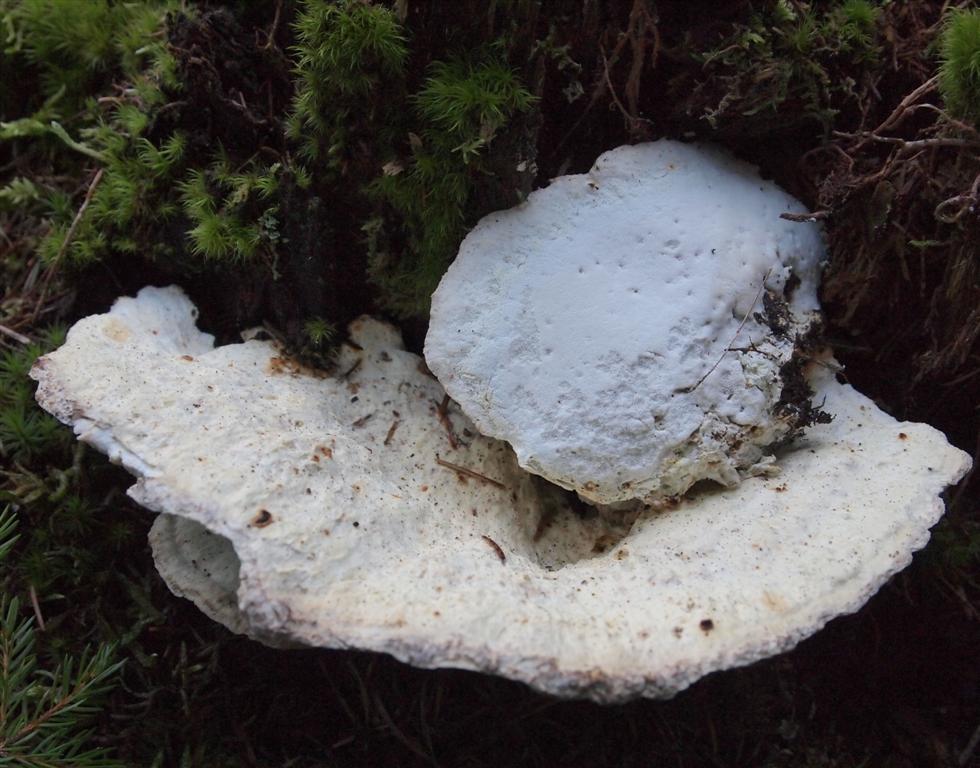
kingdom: Fungi
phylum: Basidiomycota
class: Agaricomycetes
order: Polyporales
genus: Calcipostia
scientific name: Calcipostia guttulata
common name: dråbe-kødporesvamp
